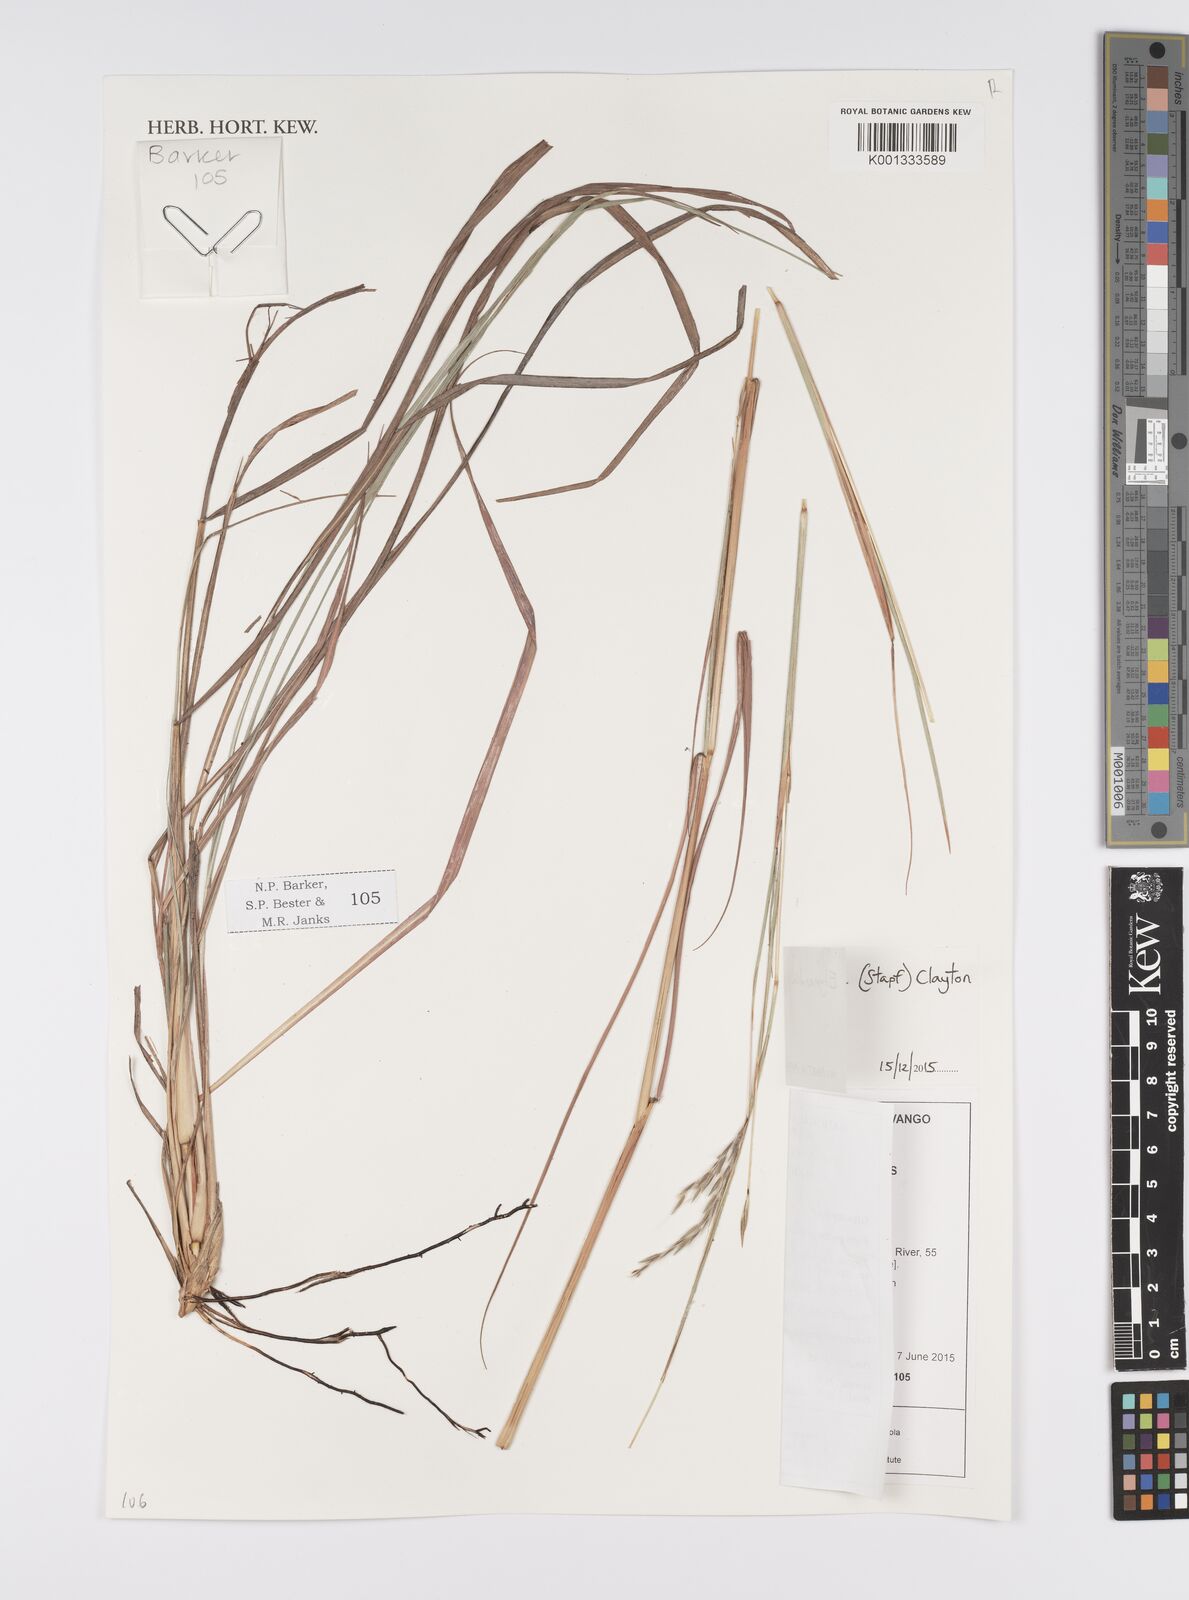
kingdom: Plantae
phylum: Tracheophyta
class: Liliopsida
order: Poales
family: Poaceae
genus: Elymandra
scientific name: Elymandra grallata
